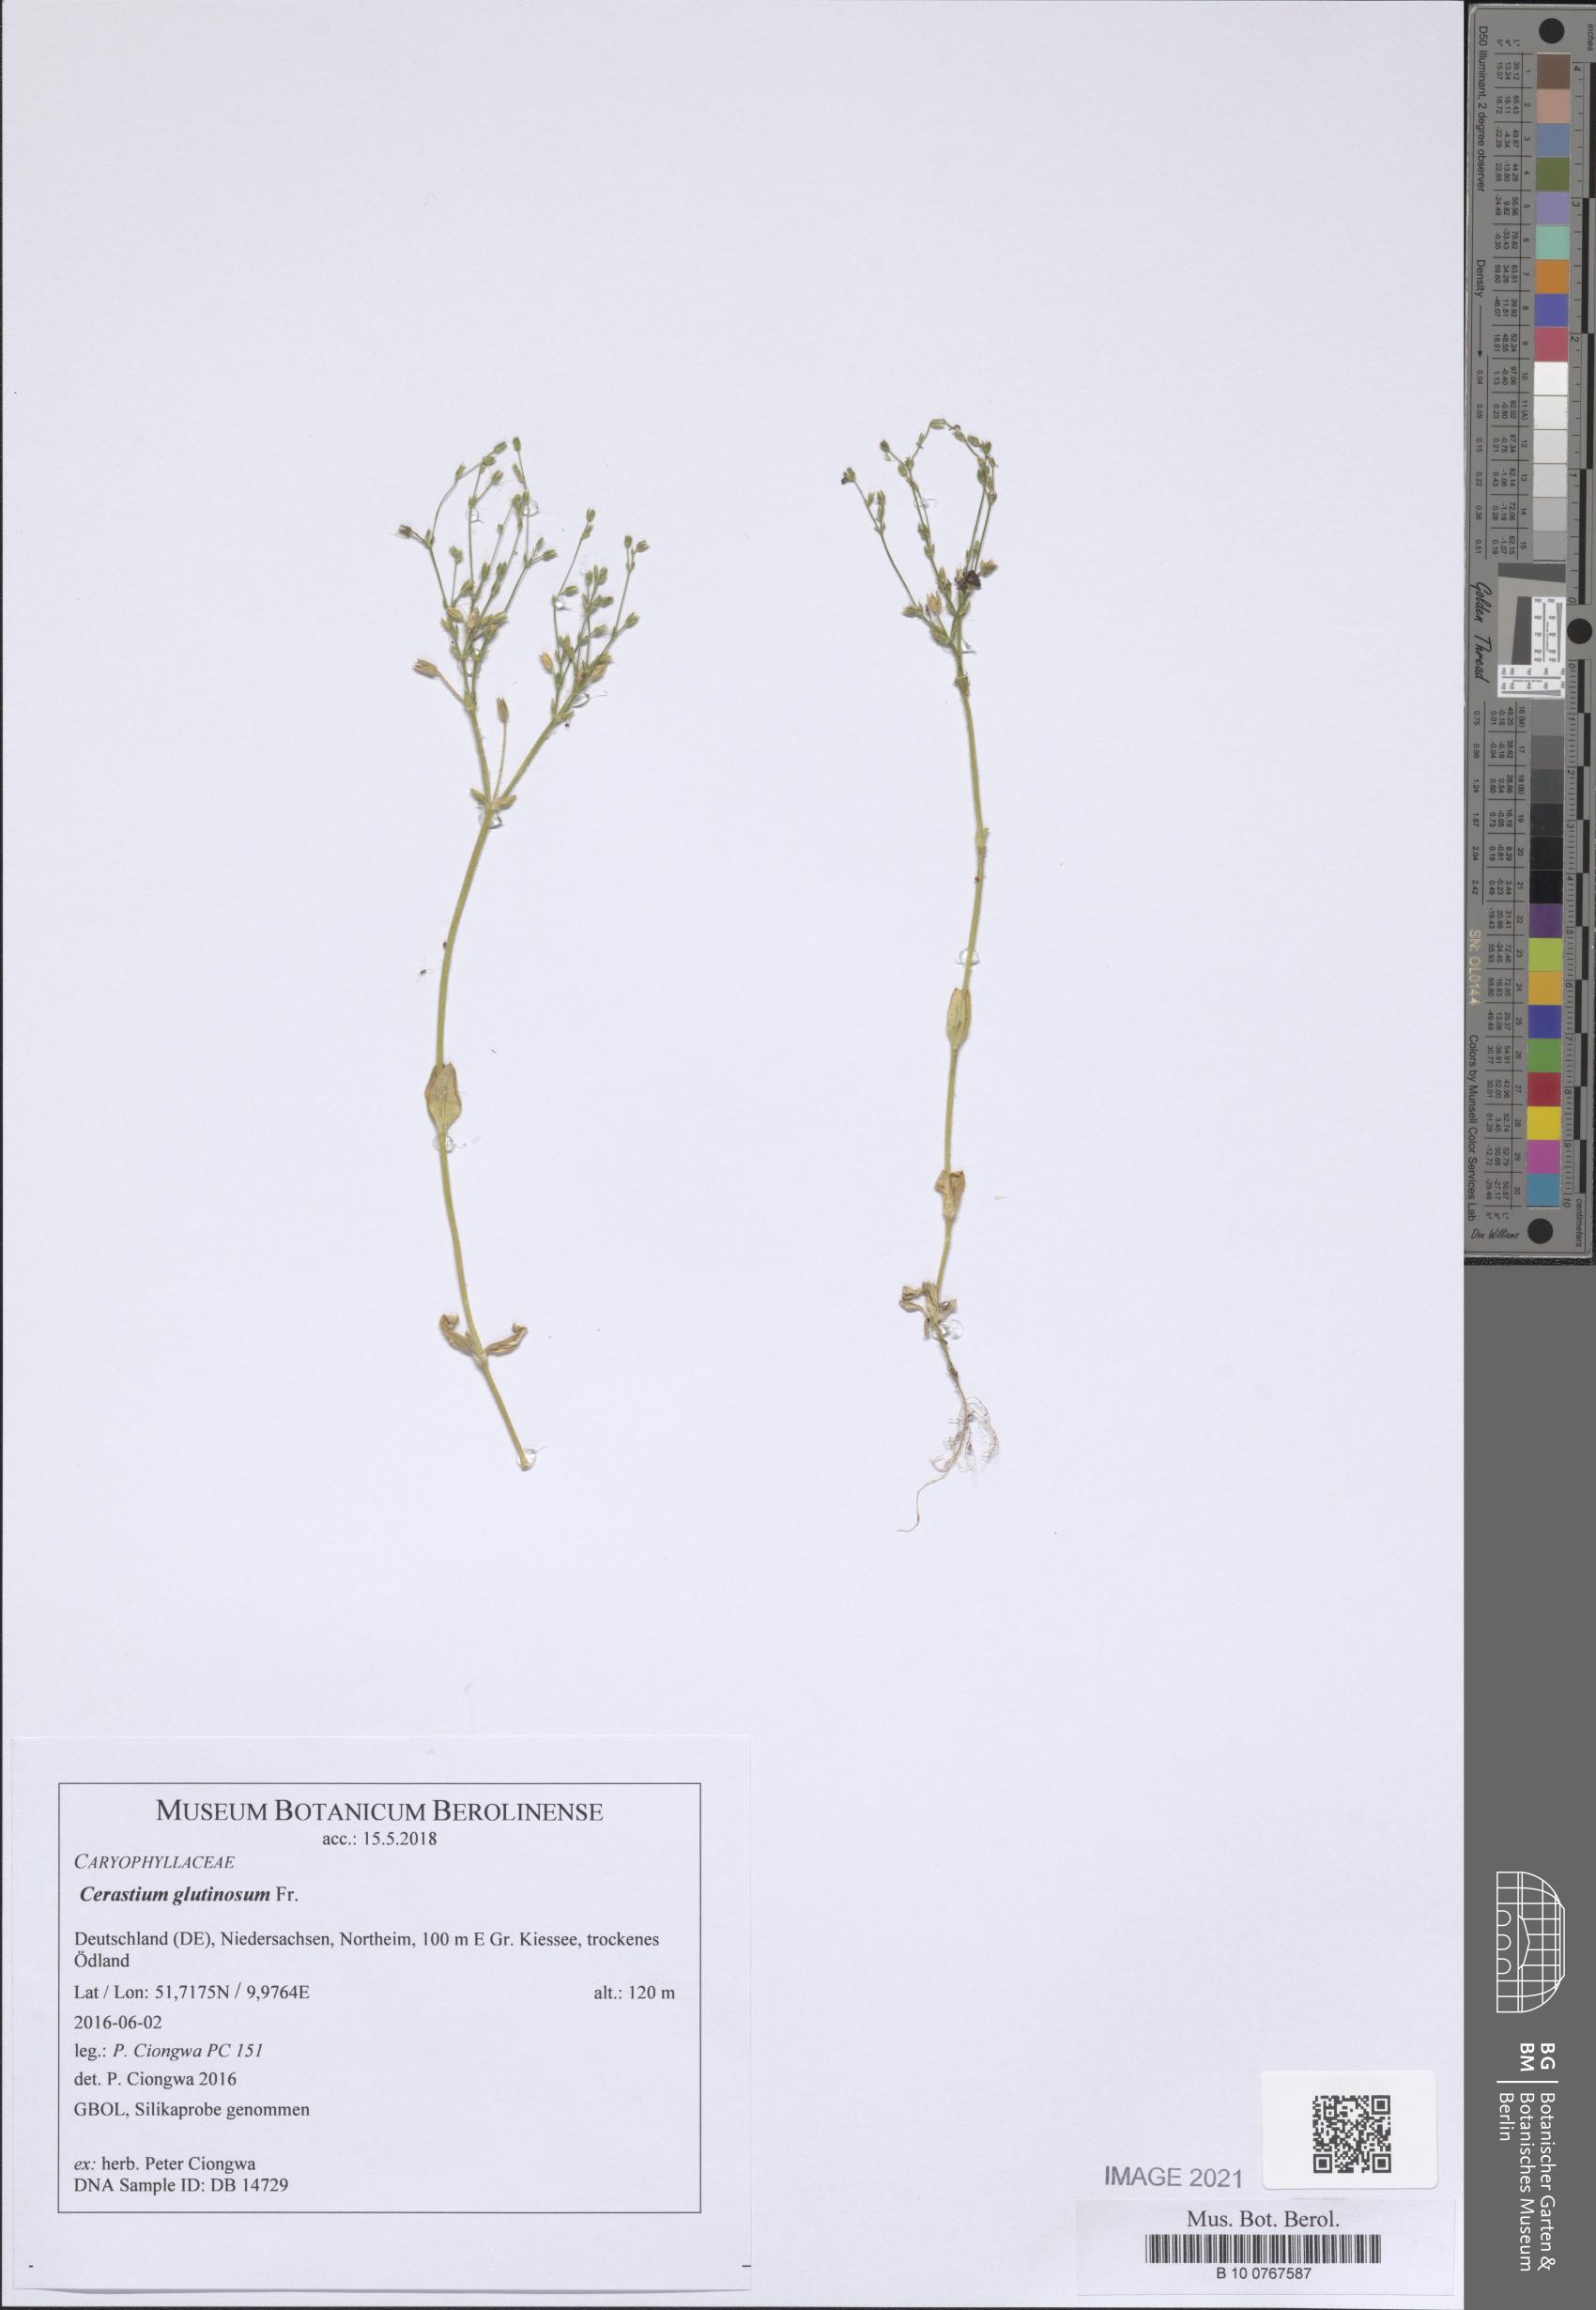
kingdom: Plantae
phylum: Tracheophyta
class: Magnoliopsida
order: Caryophyllales
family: Caryophyllaceae
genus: Cerastium
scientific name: Cerastium glutinosum
